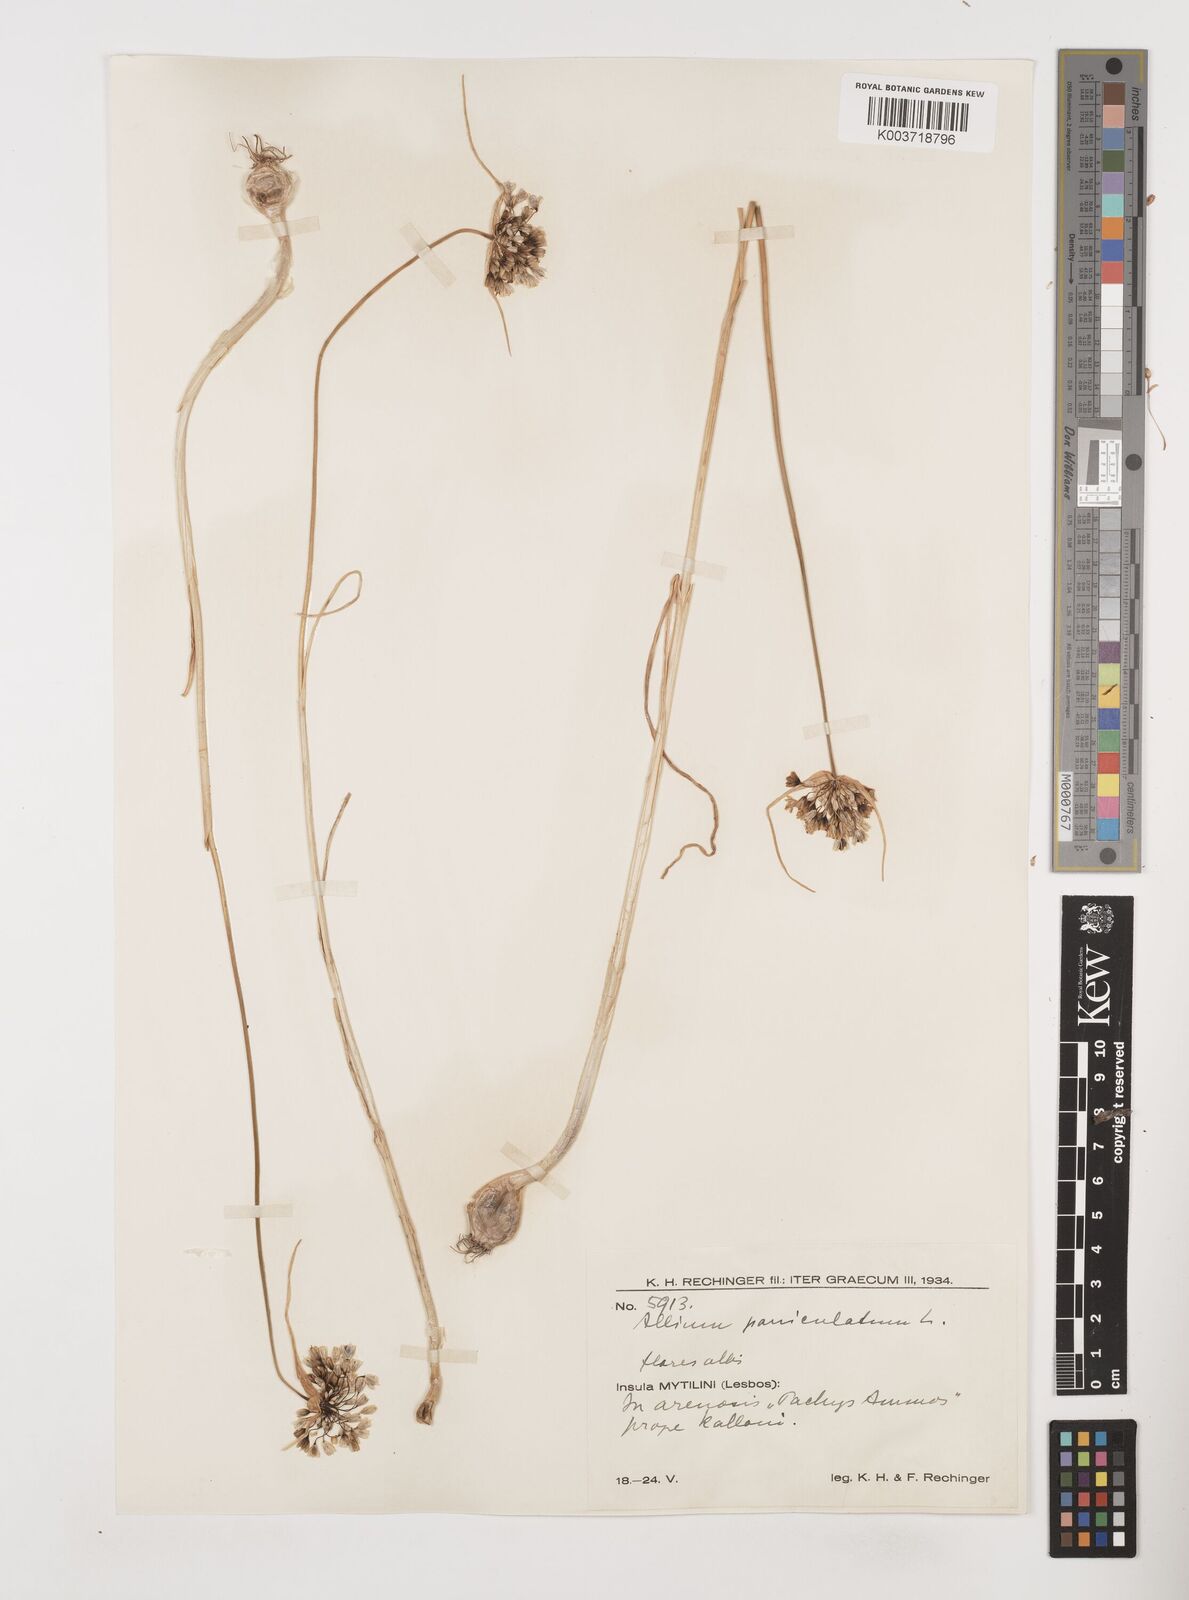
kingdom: Plantae
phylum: Tracheophyta
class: Liliopsida
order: Asparagales
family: Amaryllidaceae
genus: Allium
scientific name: Allium paniculatum
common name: Pale garlic
